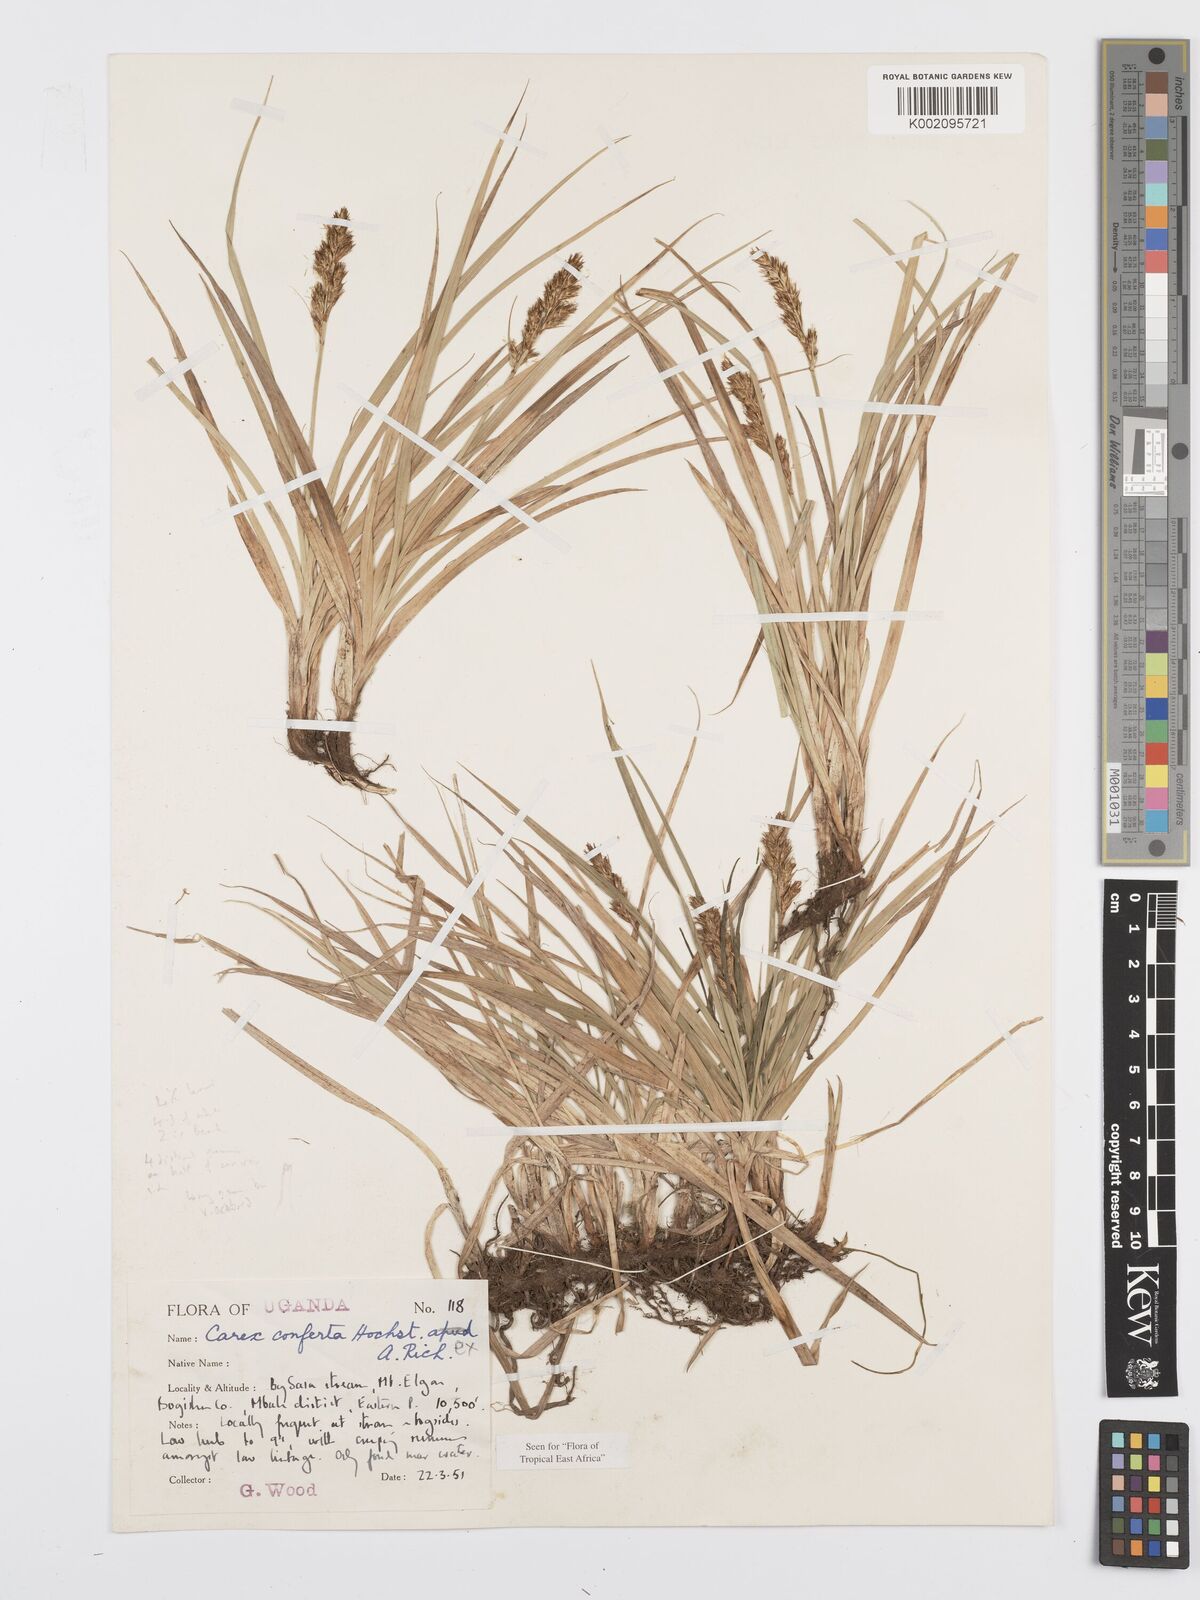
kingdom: Plantae
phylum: Tracheophyta
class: Liliopsida
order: Poales
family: Cyperaceae
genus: Carex
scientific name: Carex conferta
